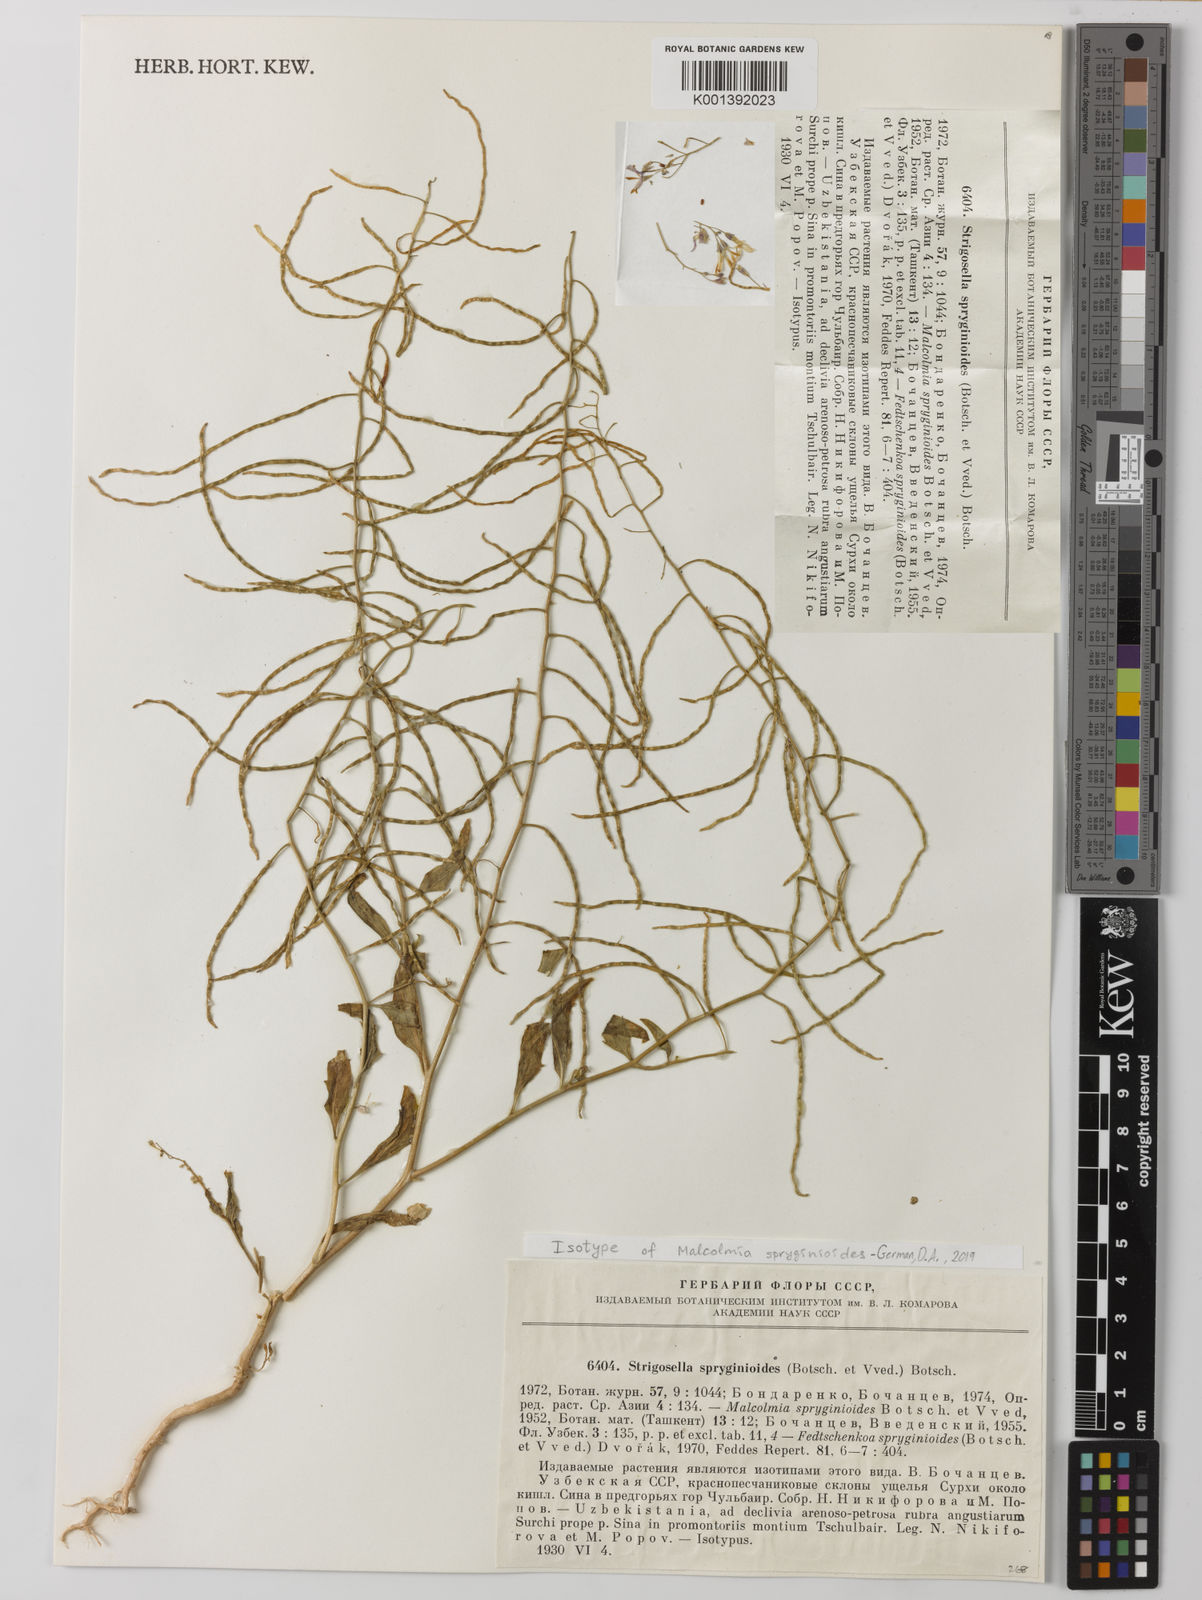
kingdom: Plantae
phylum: Tracheophyta
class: Magnoliopsida
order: Brassicales
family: Brassicaceae
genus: Strigosella
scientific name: Strigosella spryginioides
